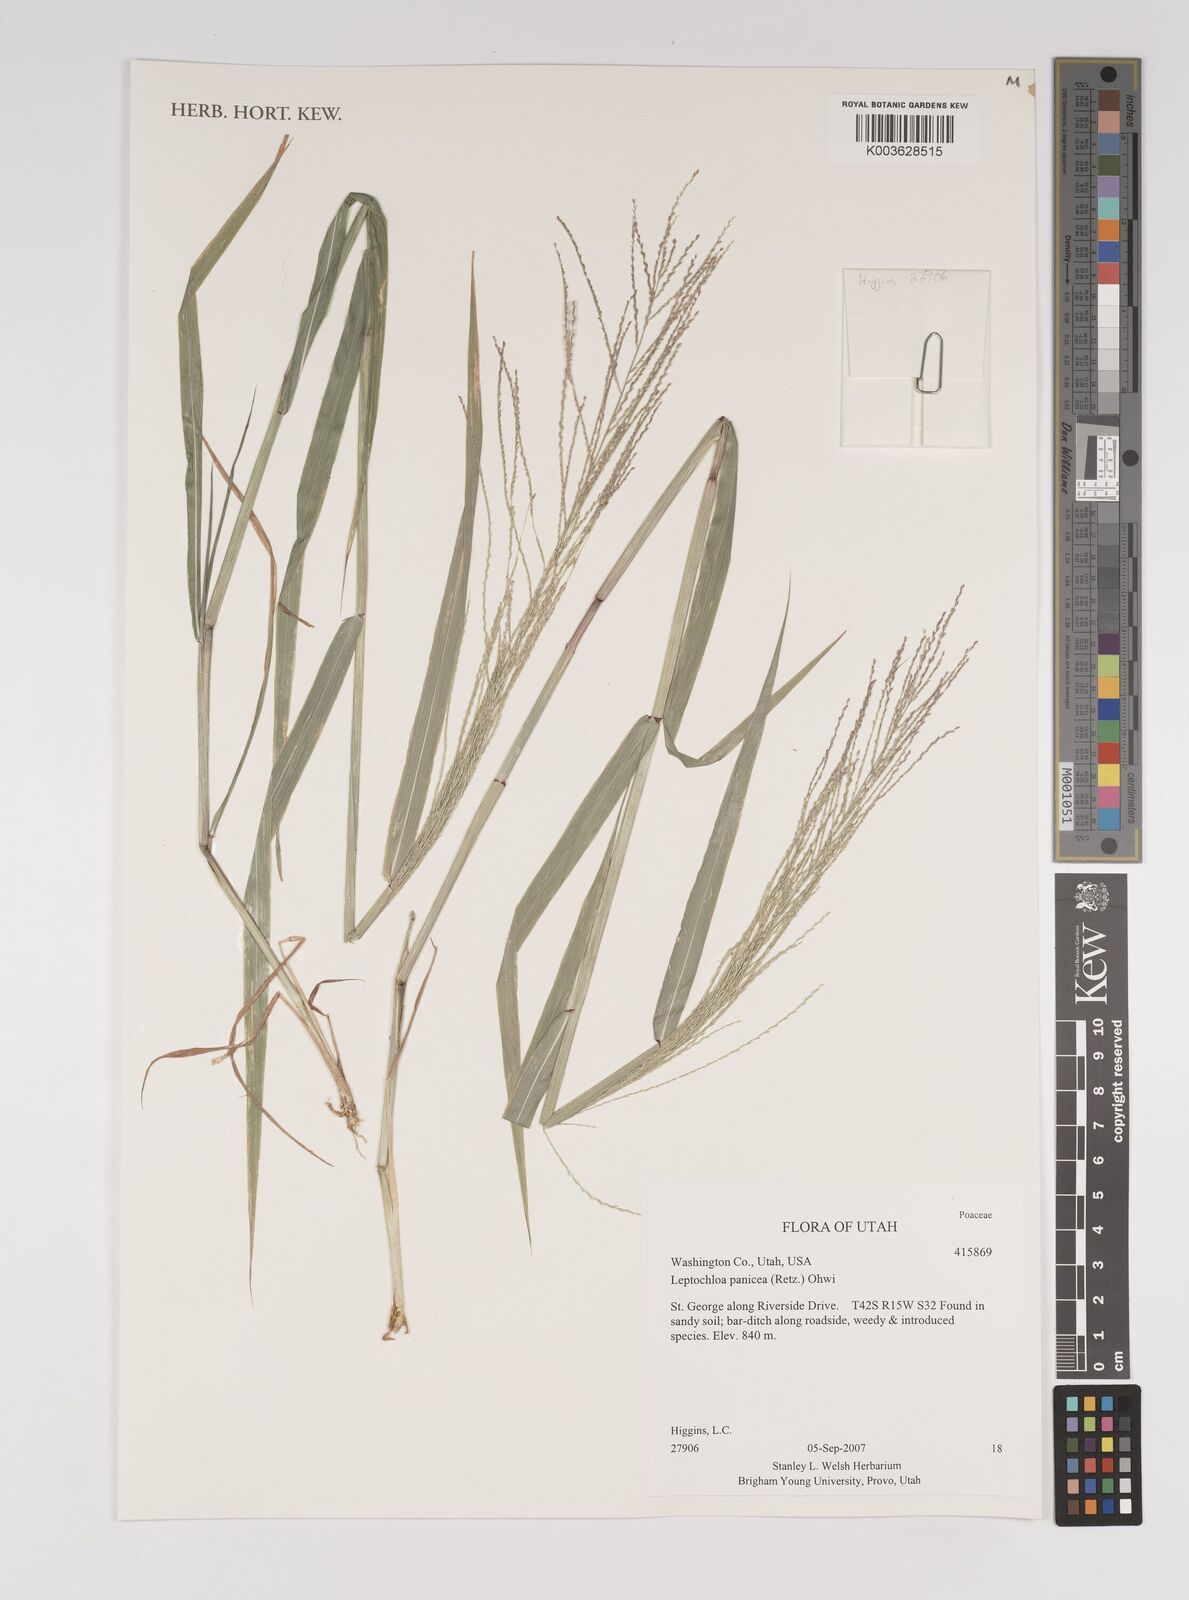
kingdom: Plantae
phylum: Tracheophyta
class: Liliopsida
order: Poales
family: Poaceae
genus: Leptochloa
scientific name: Leptochloa panicea
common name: Mucronate sprangletop
